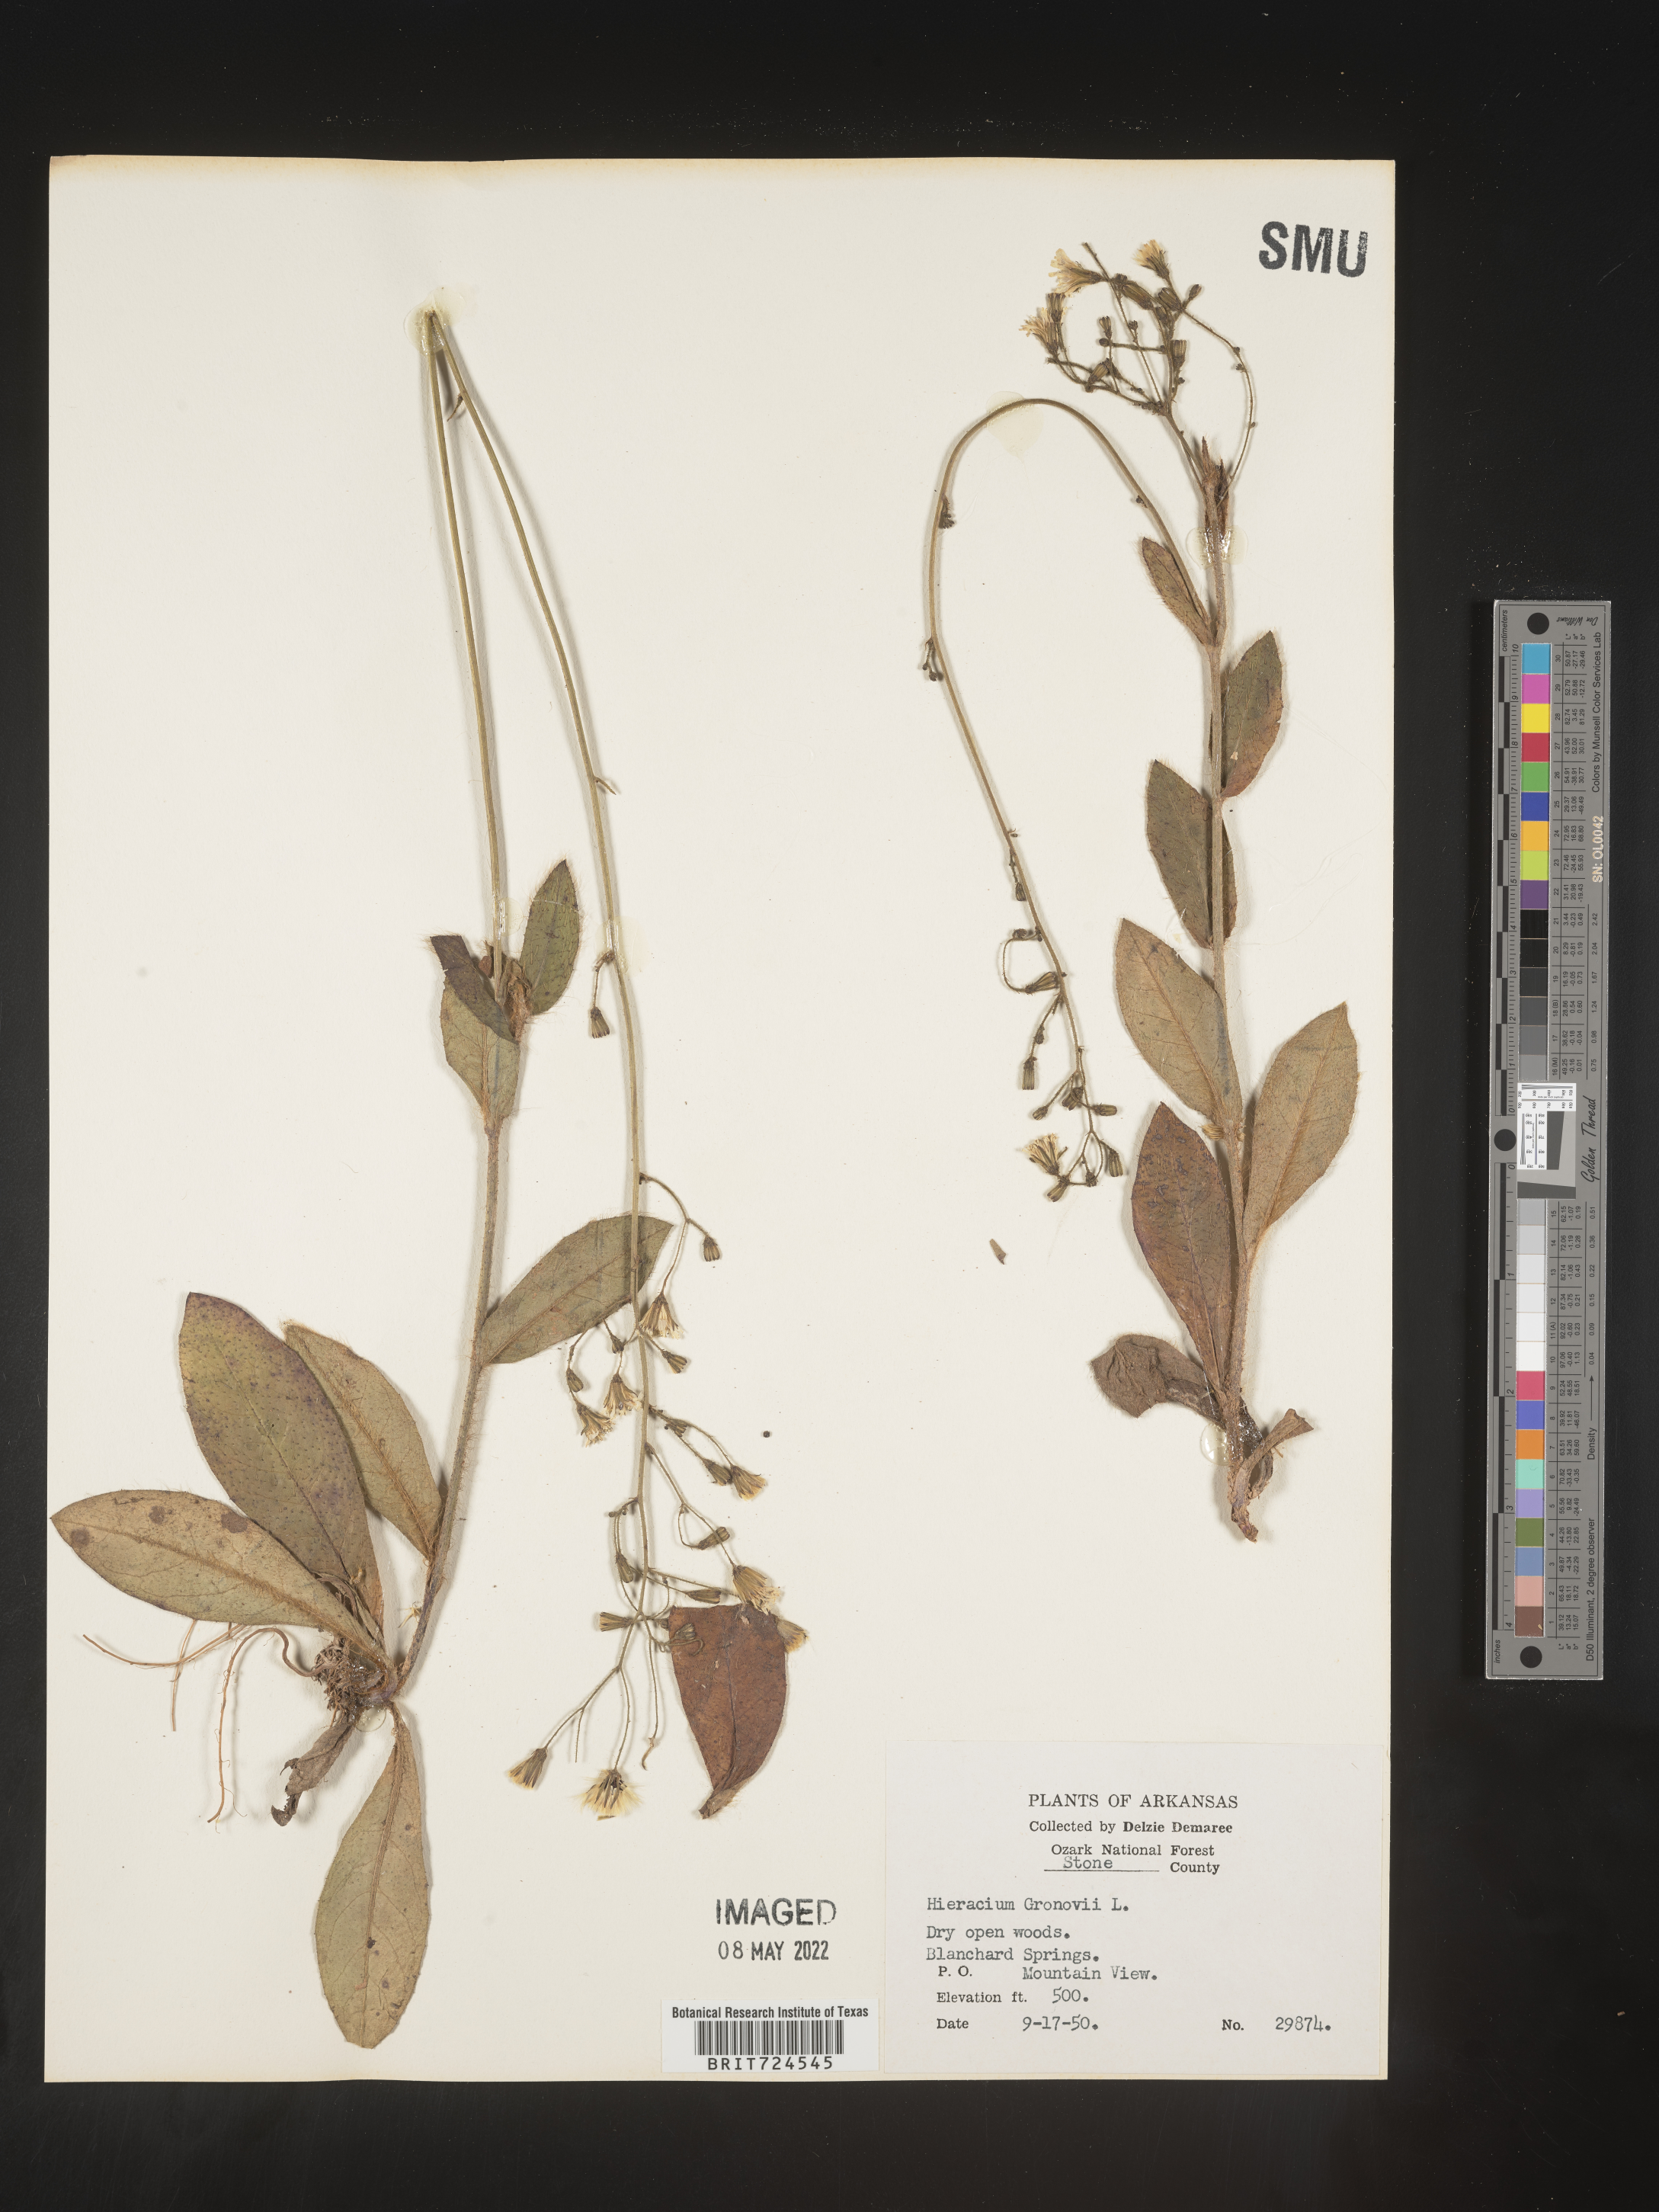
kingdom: Plantae
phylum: Tracheophyta
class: Magnoliopsida
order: Asterales
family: Asteraceae
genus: Hieracium
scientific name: Hieracium gronovii
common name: Beaked hawkweed
